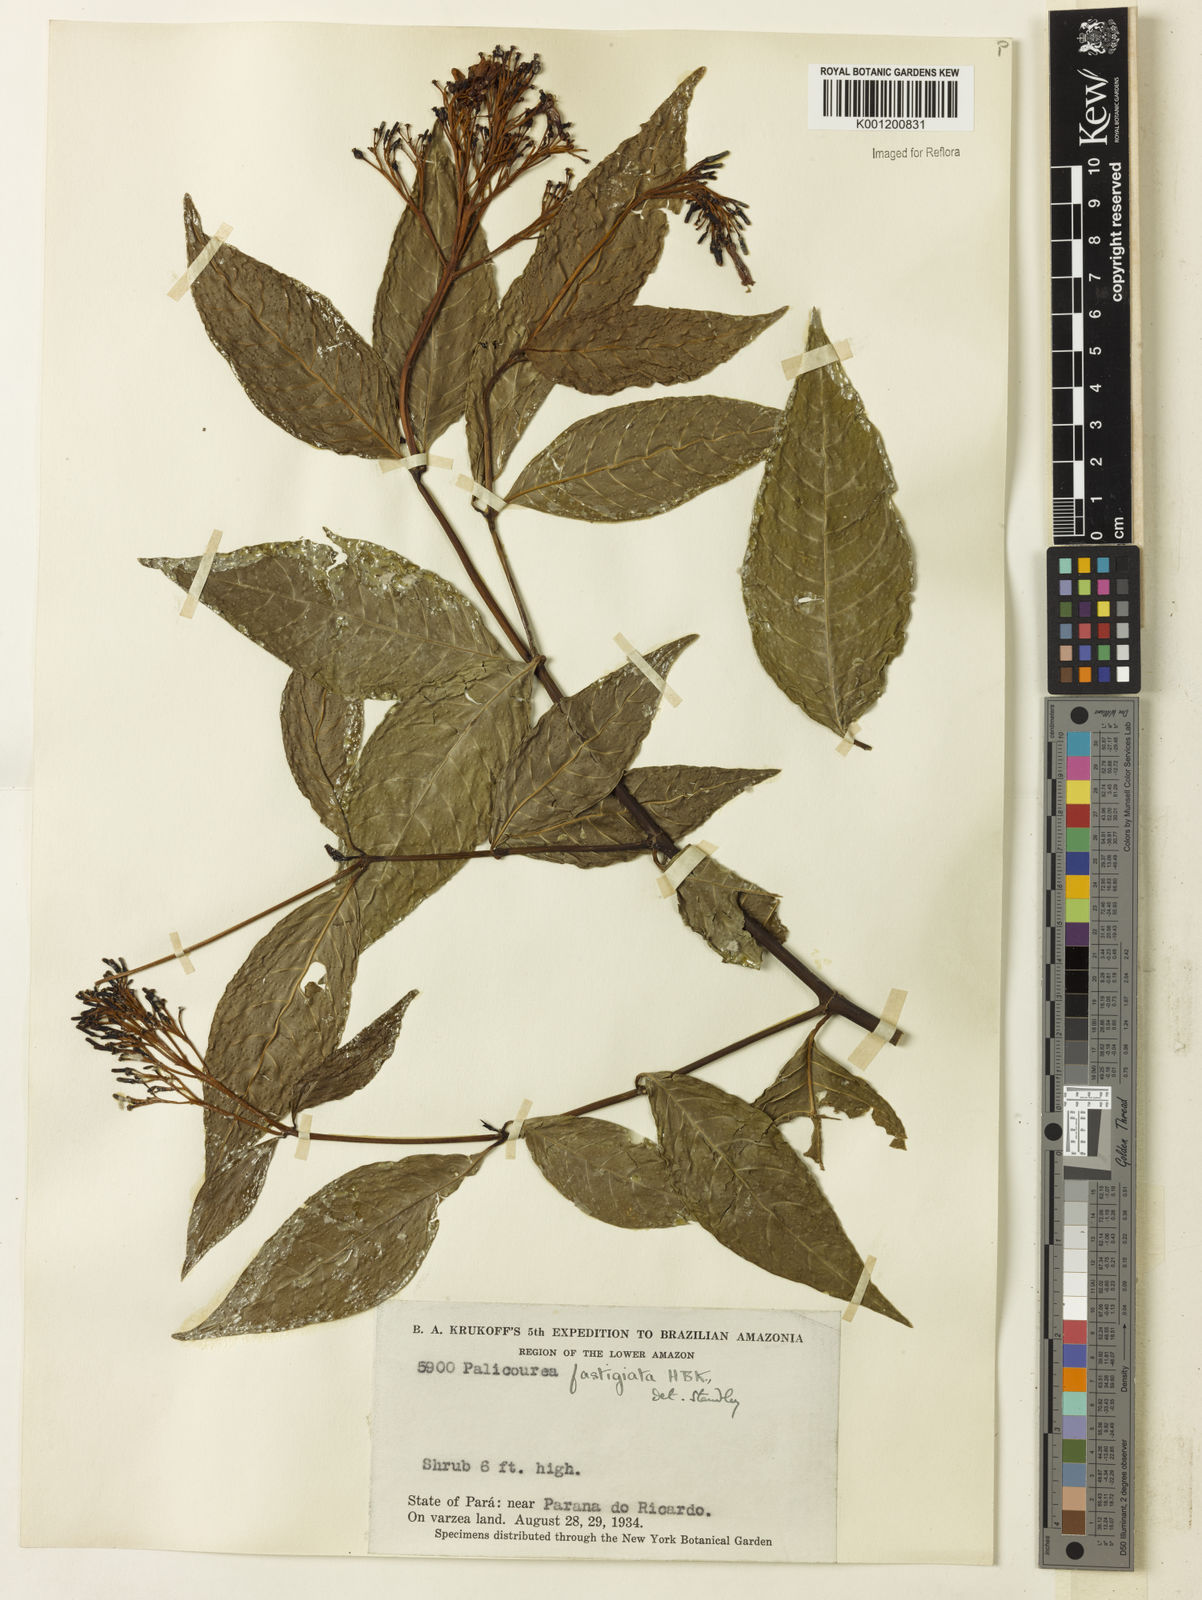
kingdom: Plantae
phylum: Tracheophyta
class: Magnoliopsida
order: Gentianales
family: Rubiaceae
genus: Palicourea
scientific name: Palicourea croceoides
